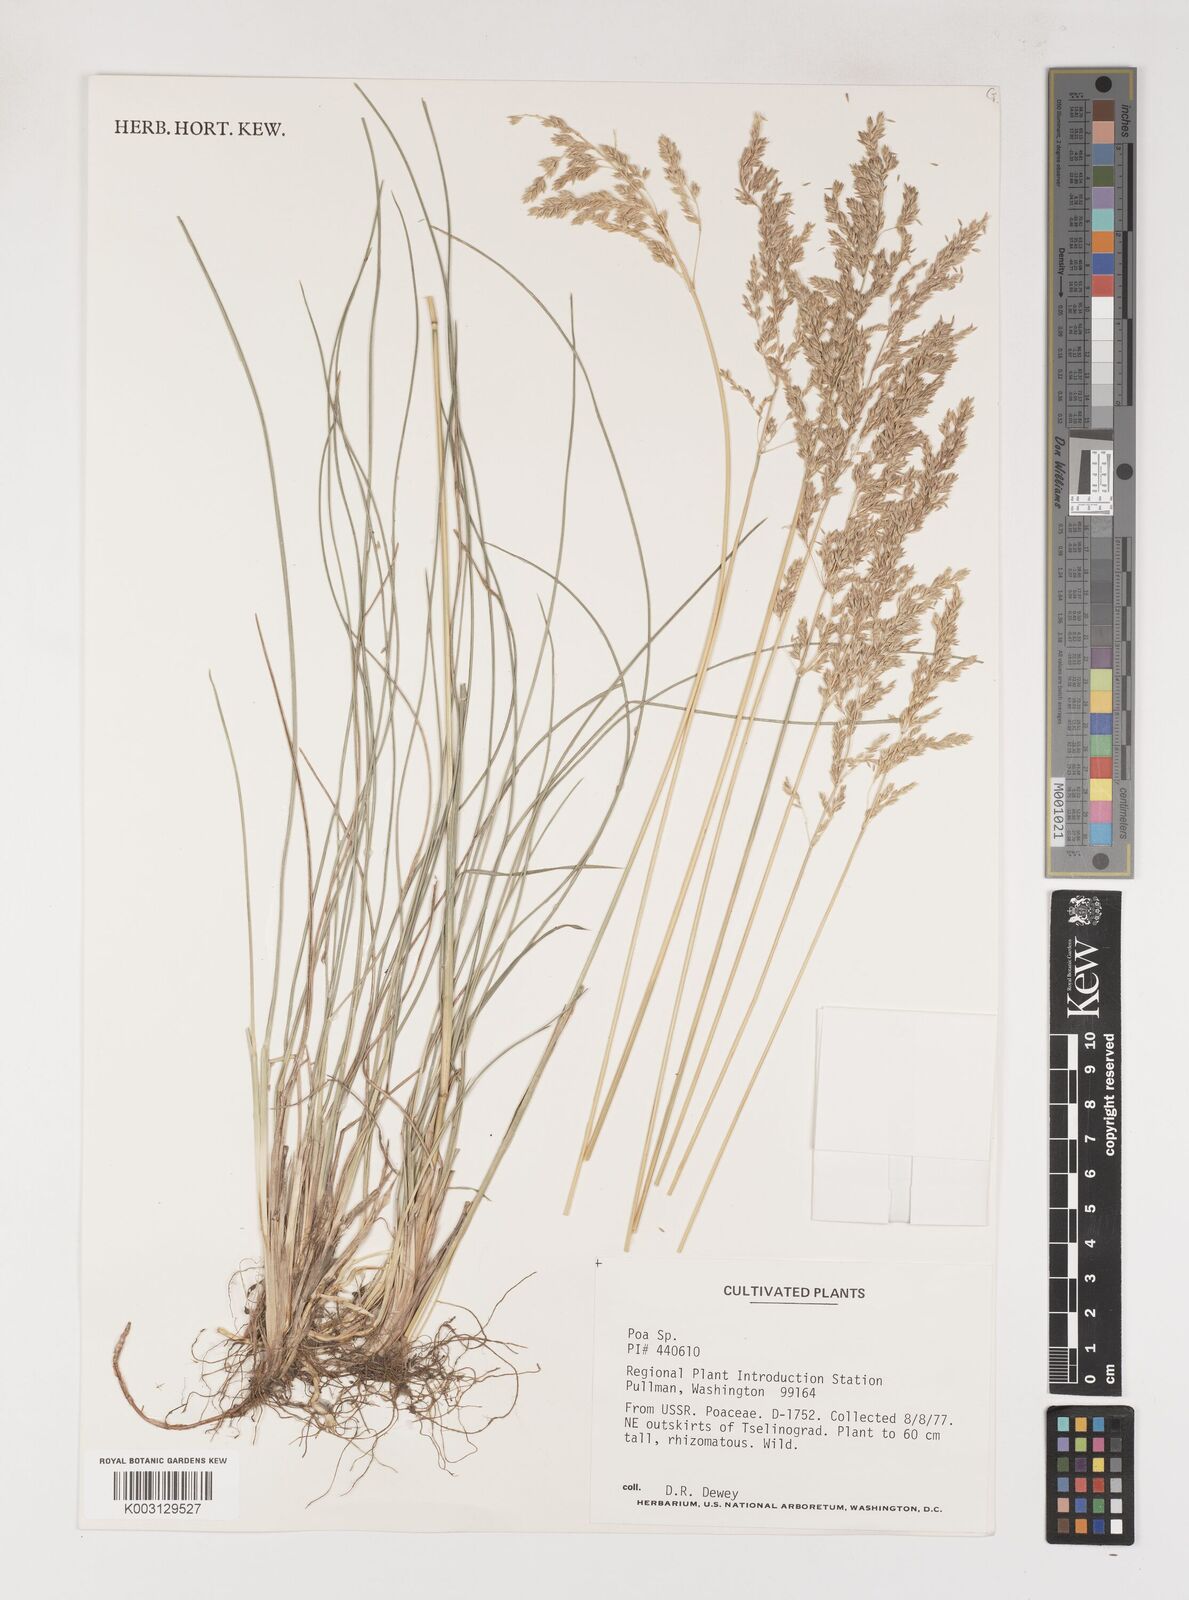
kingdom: Plantae
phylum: Tracheophyta
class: Liliopsida
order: Poales
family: Poaceae
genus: Poa
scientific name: Poa
